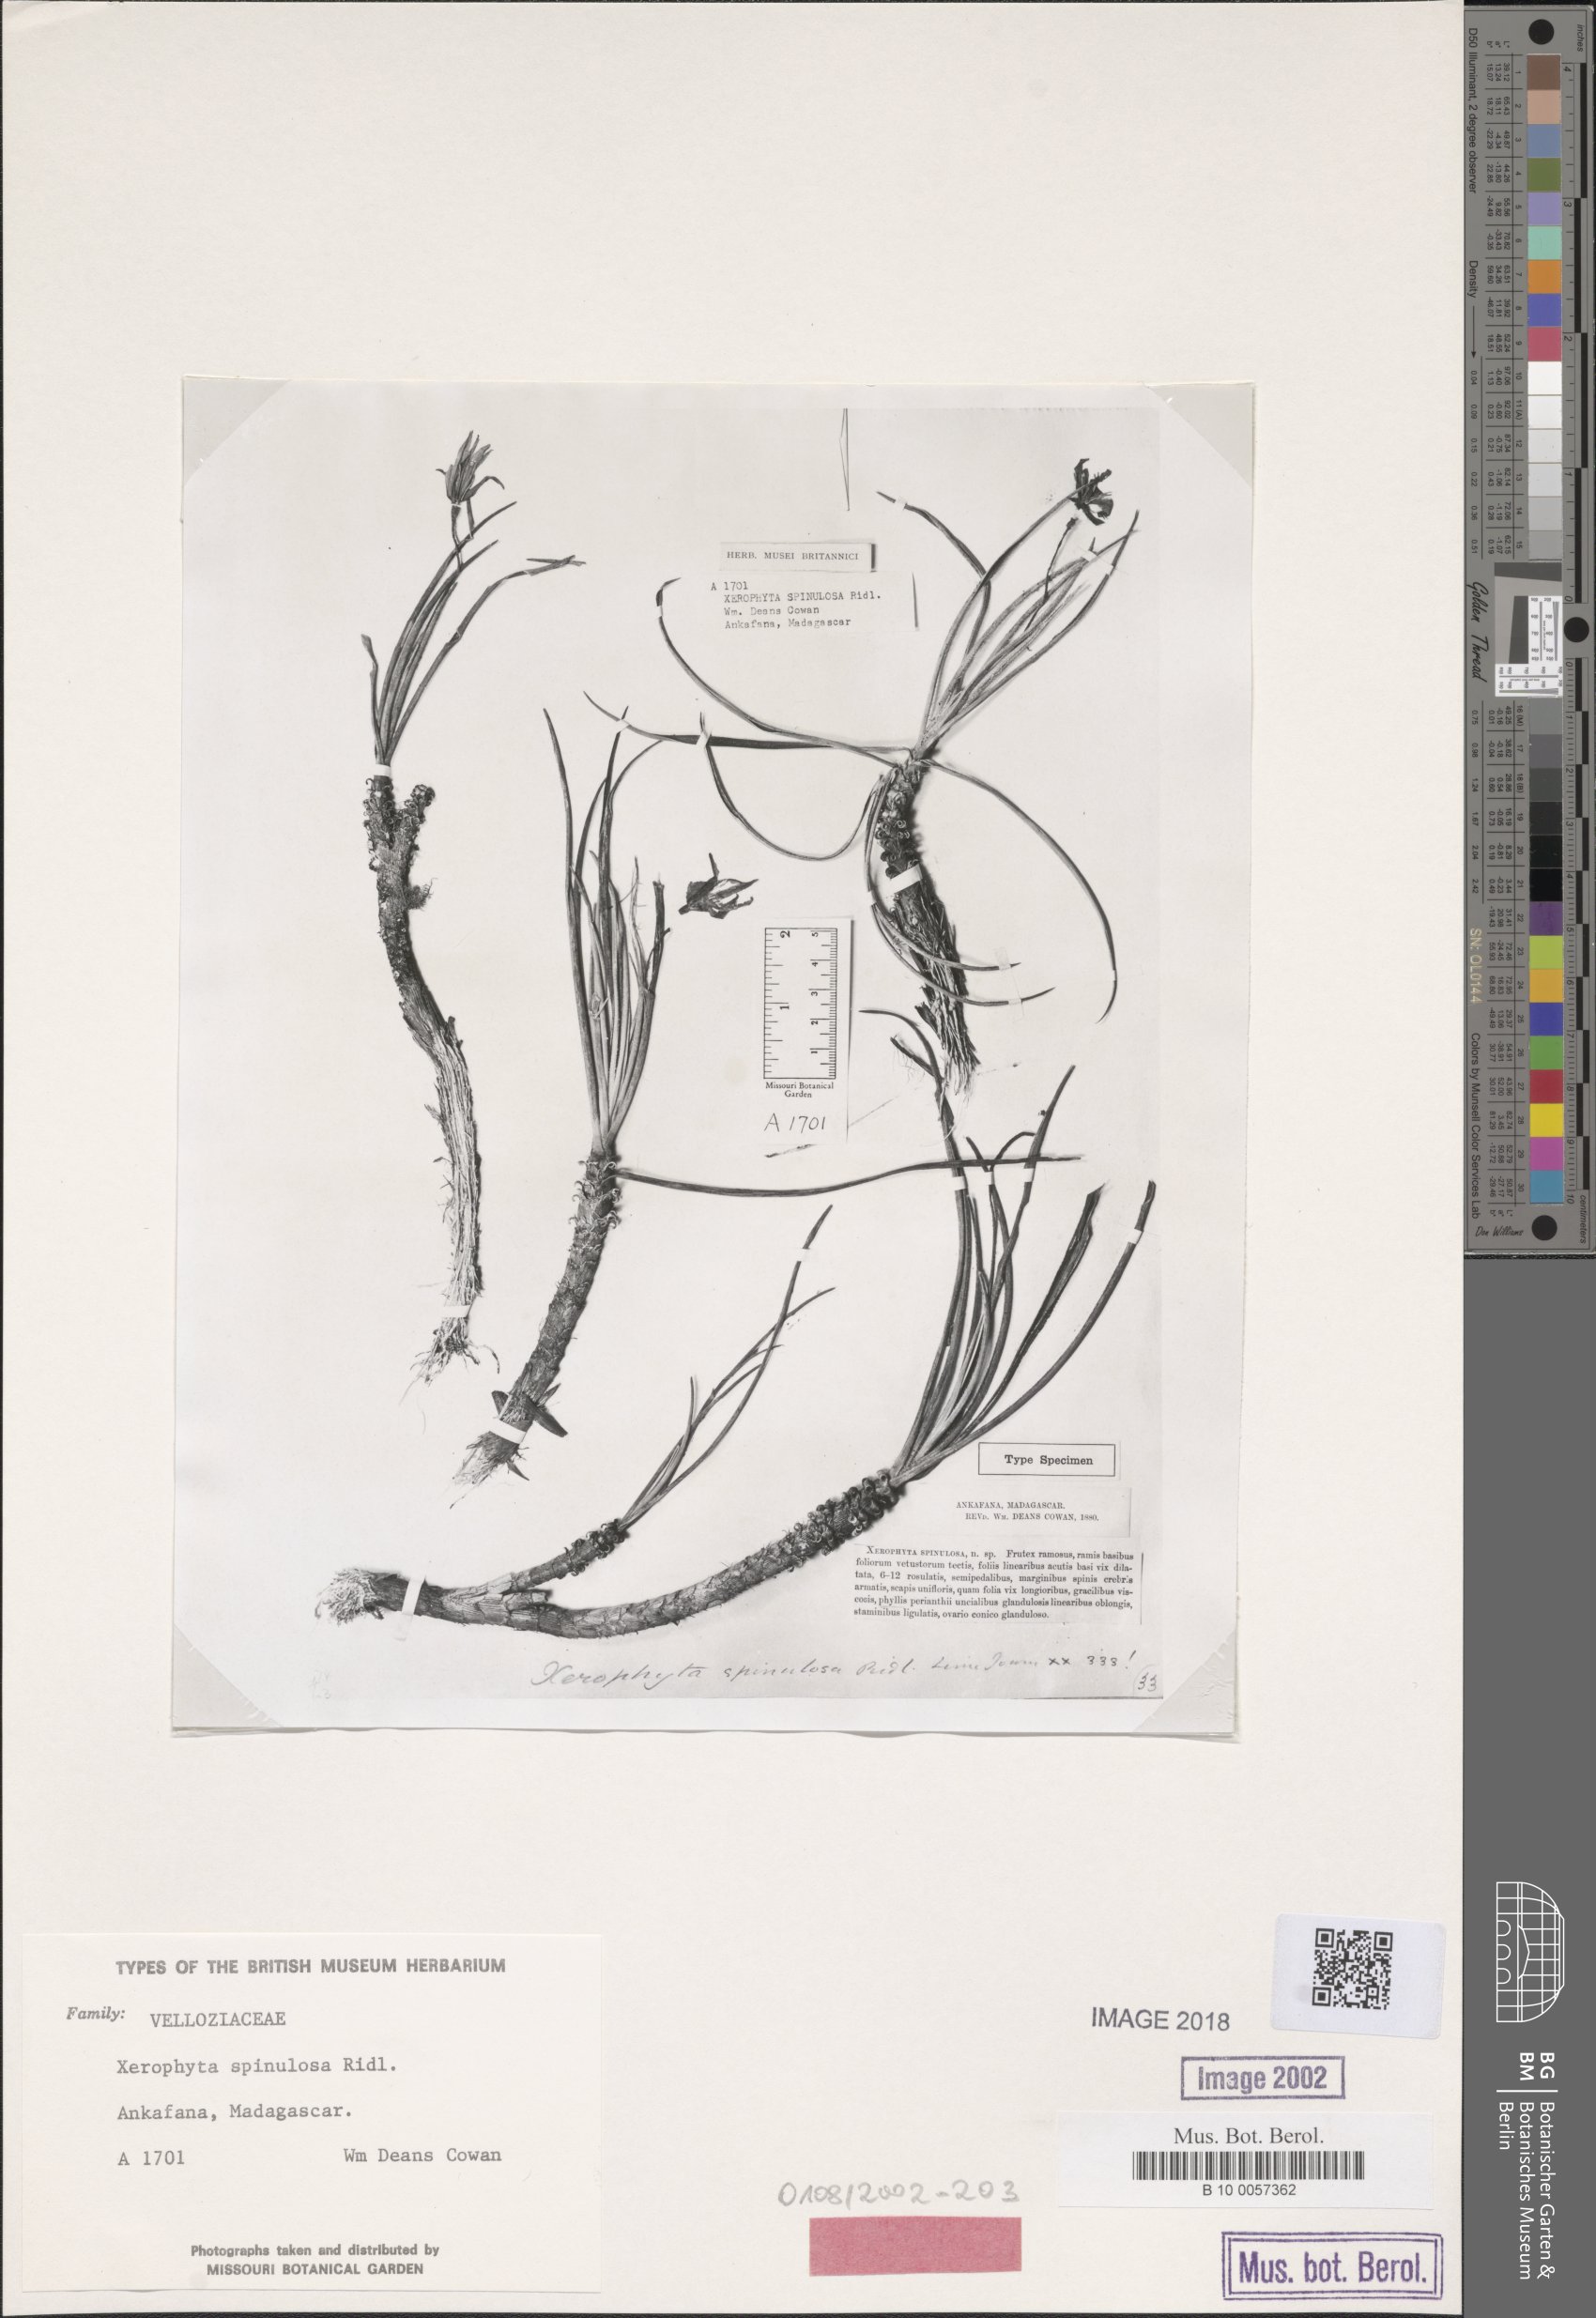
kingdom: Plantae
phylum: Tracheophyta
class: Liliopsida
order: Pandanales
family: Velloziaceae
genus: Xerophyta
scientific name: Xerophyta pectinata
